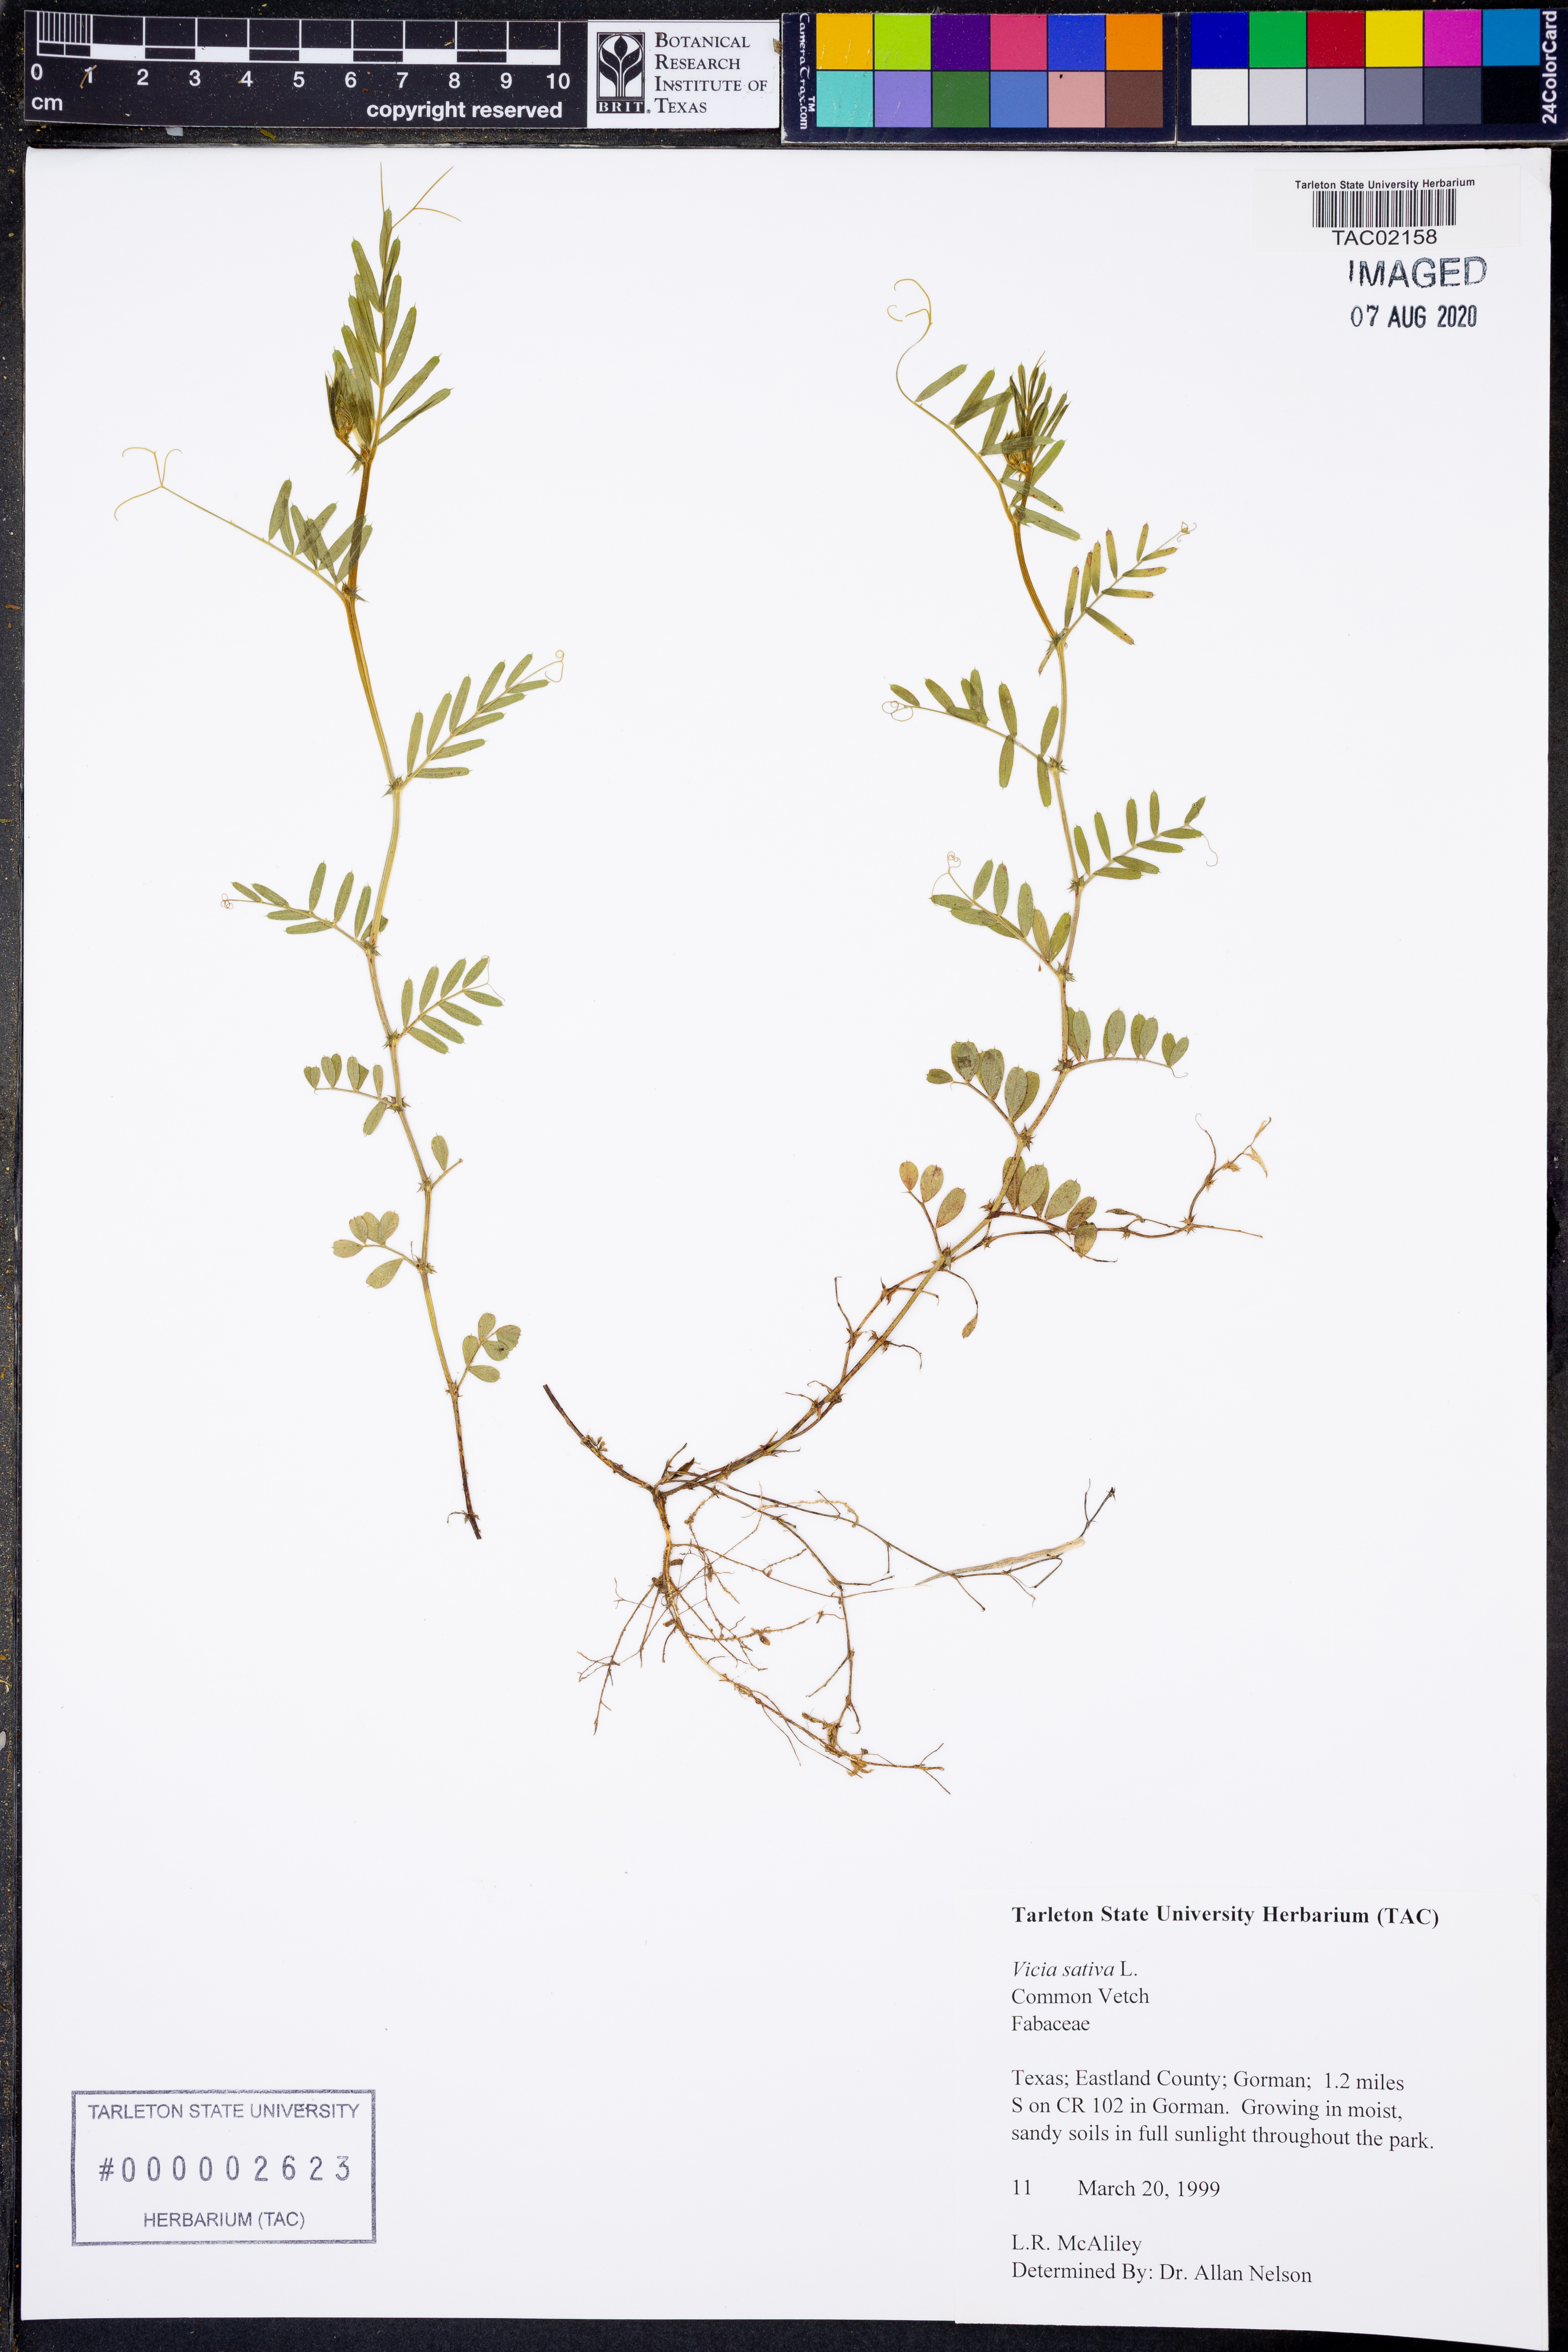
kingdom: Plantae
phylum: Tracheophyta
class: Magnoliopsida
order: Fabales
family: Fabaceae
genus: Vicia
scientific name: Vicia sativa
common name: Garden vetch
